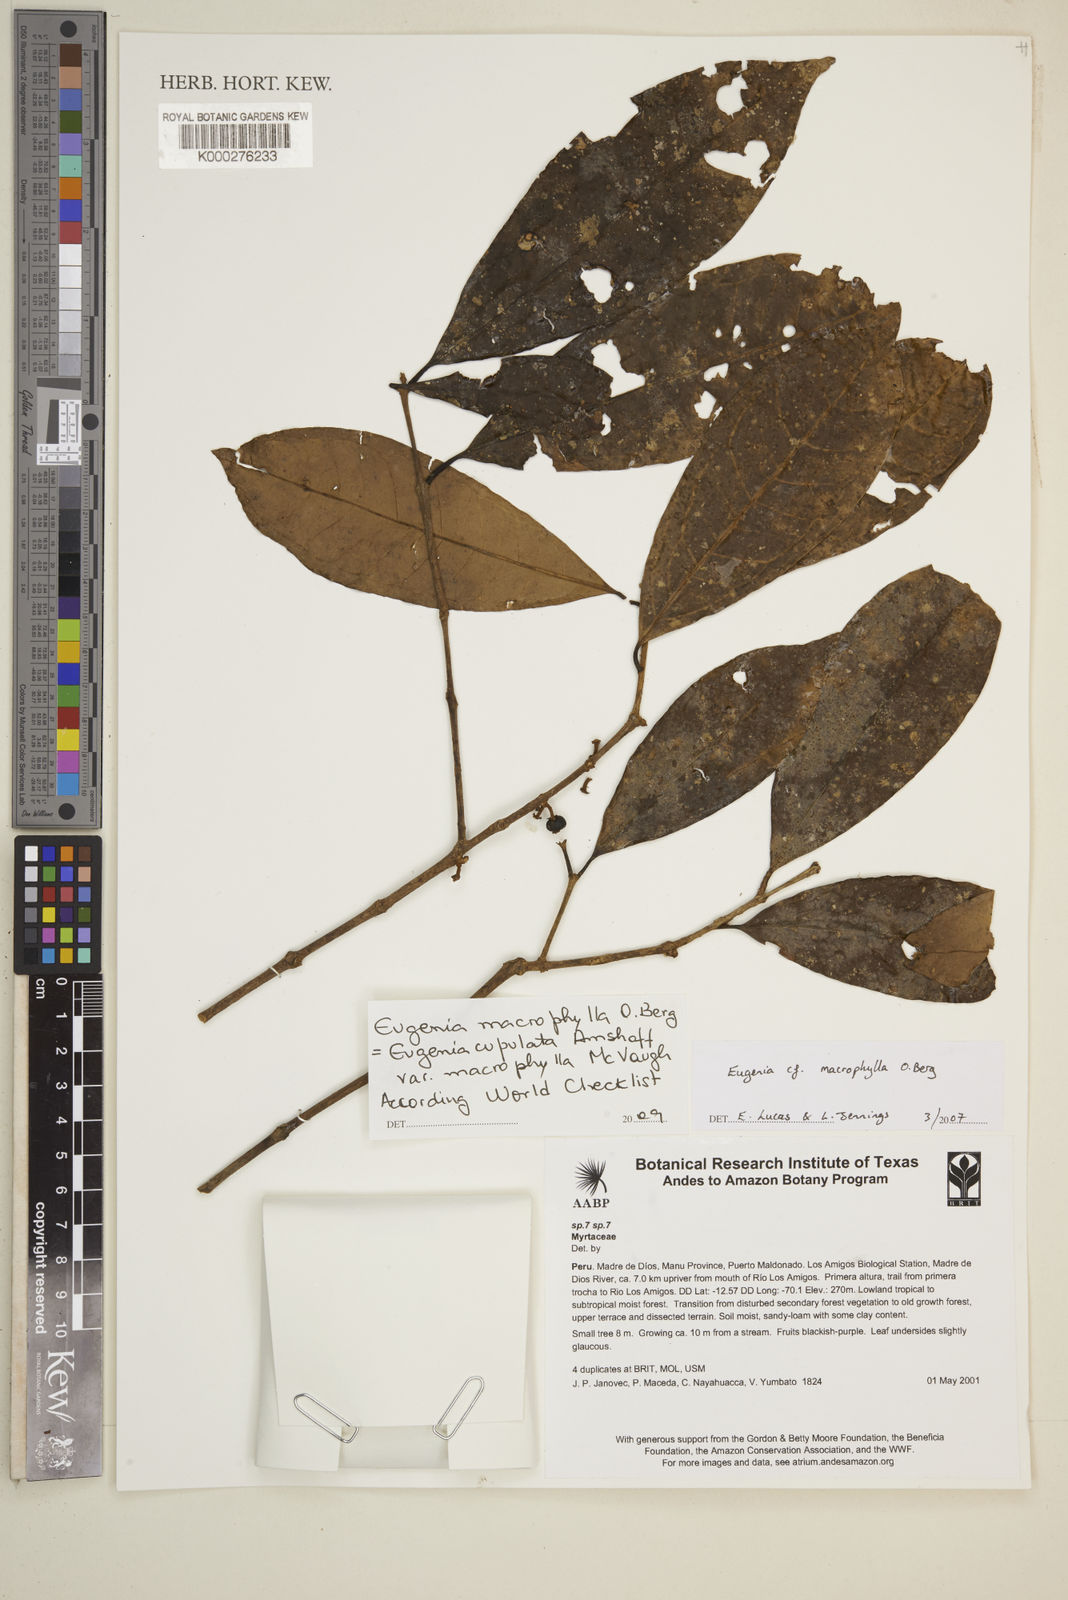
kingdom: Plantae
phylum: Tracheophyta
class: Magnoliopsida
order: Myrtales
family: Myrtaceae
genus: Eugenia
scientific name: Eugenia
